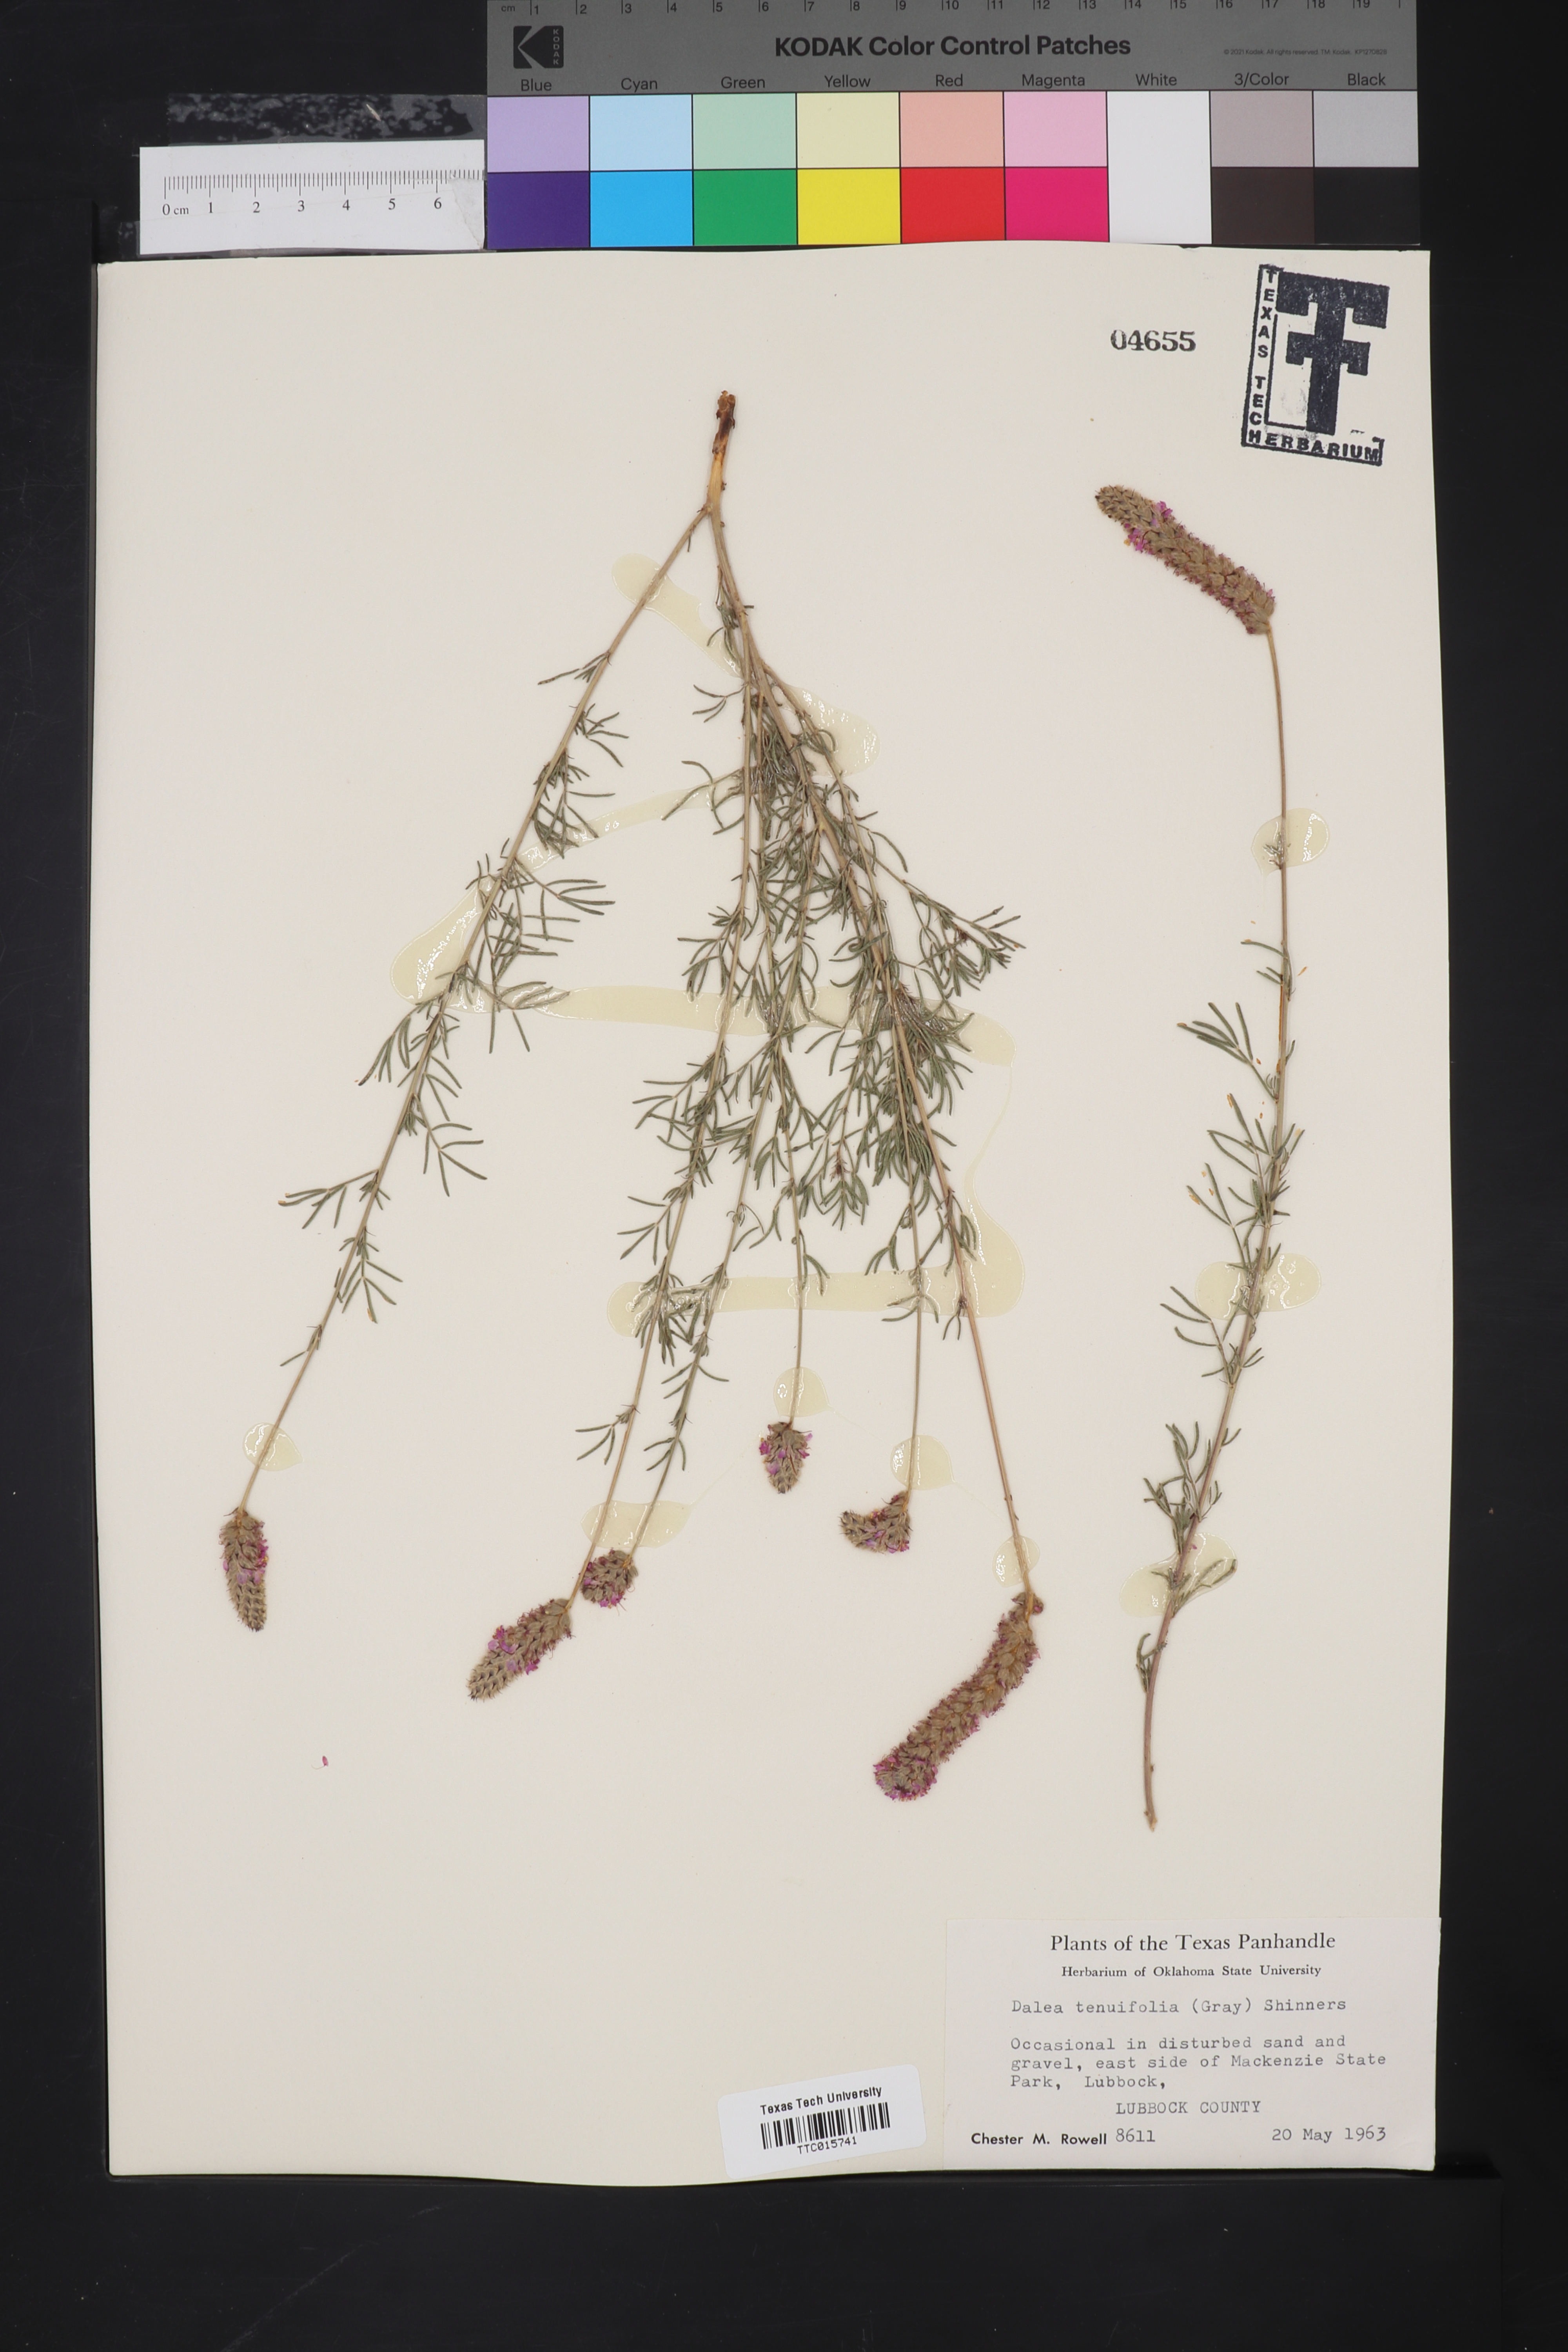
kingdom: Plantae
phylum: Tracheophyta
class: Magnoliopsida
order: Fabales
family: Fabaceae
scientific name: Fabaceae
